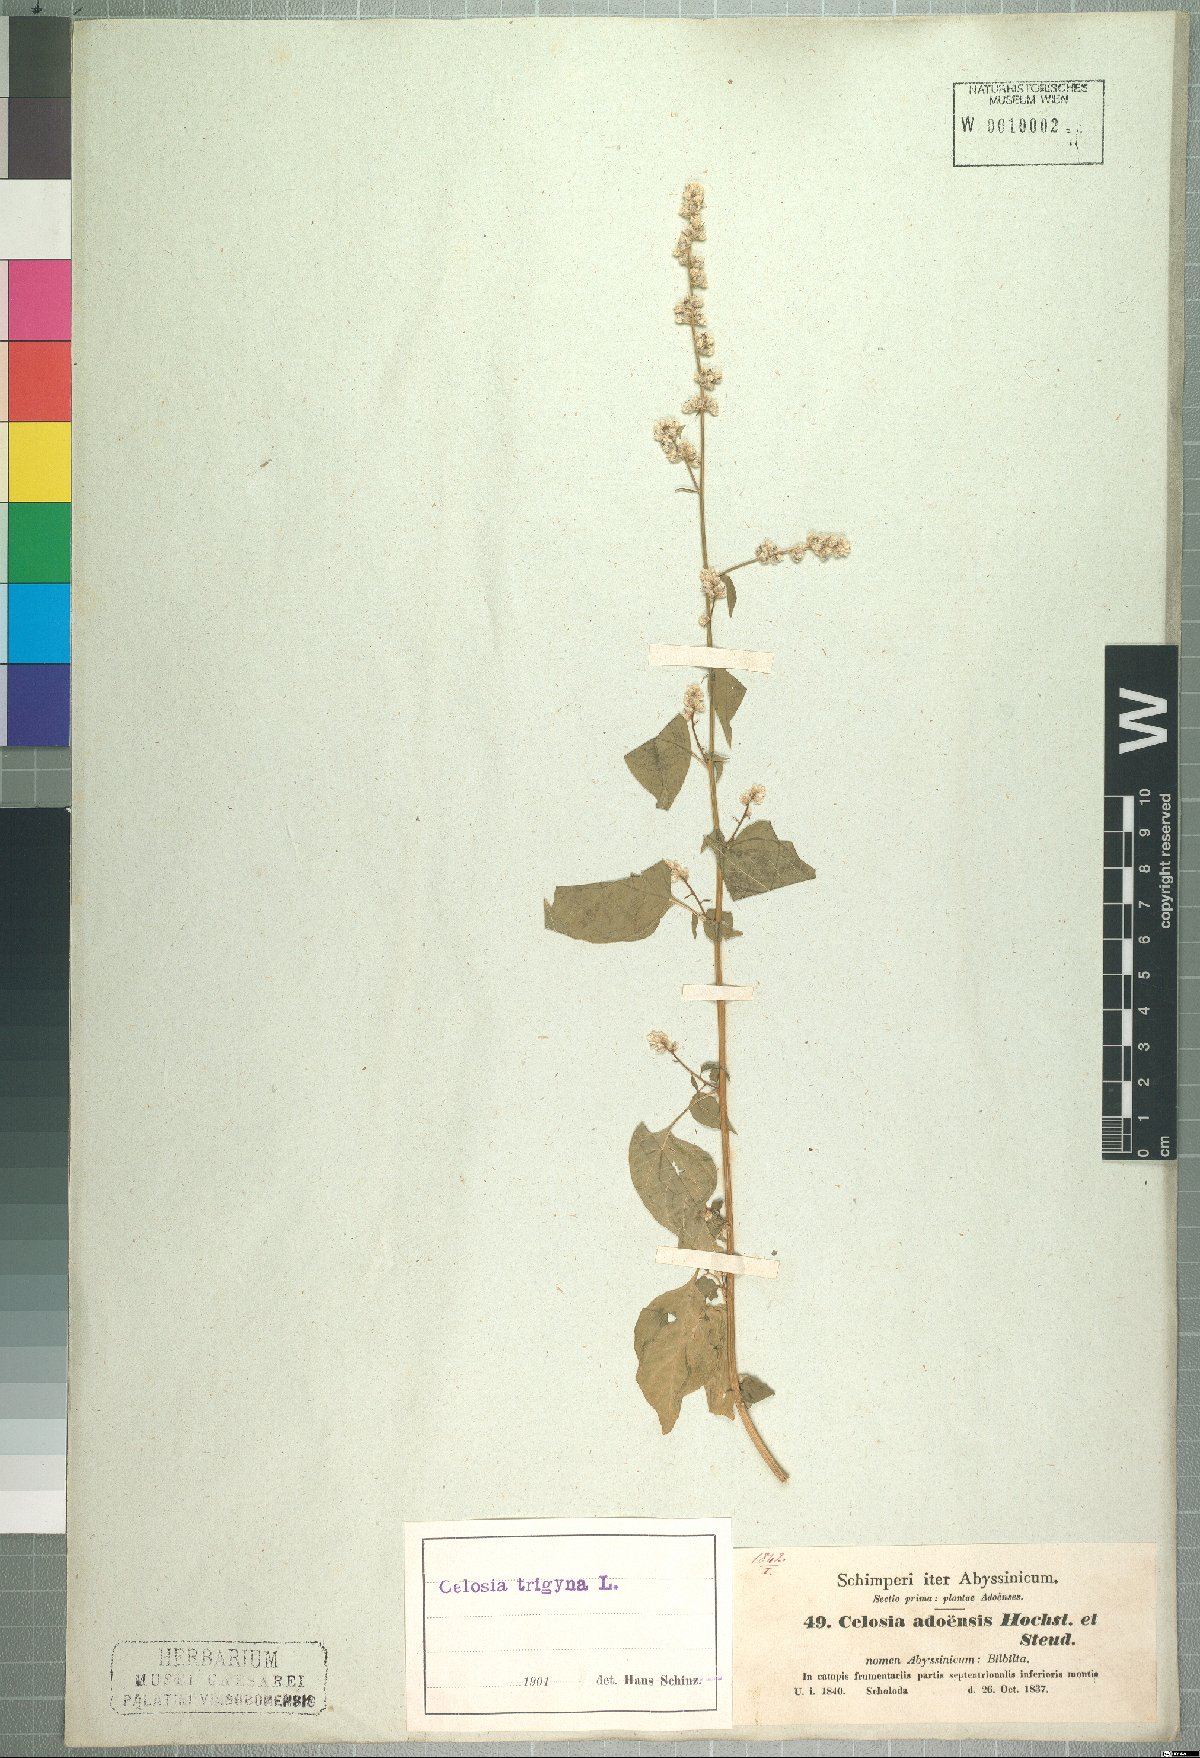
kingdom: Plantae
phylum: Tracheophyta
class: Magnoliopsida
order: Caryophyllales
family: Amaranthaceae
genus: Celosia
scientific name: Celosia trigyna
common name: Woolflower
